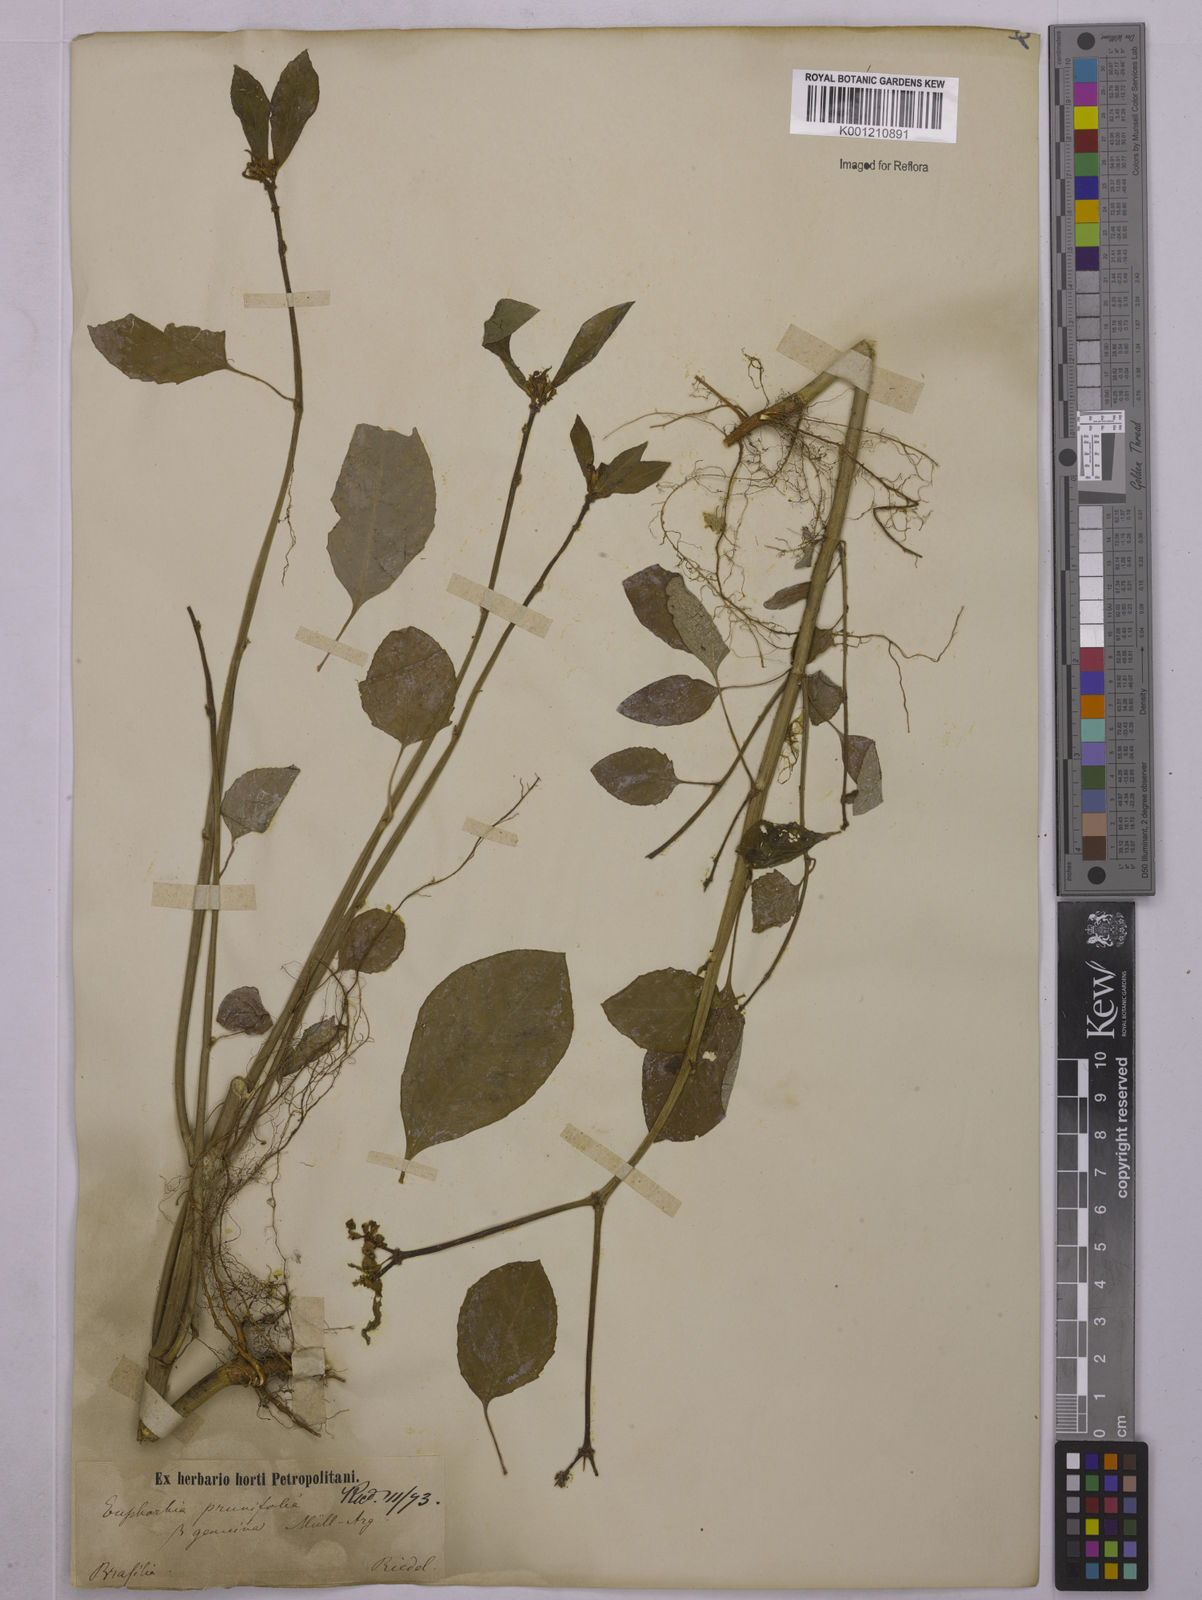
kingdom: Plantae
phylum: Tracheophyta
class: Magnoliopsida
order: Malpighiales
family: Euphorbiaceae
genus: Euphorbia
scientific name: Euphorbia heterophylla
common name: Mexican fireplant
